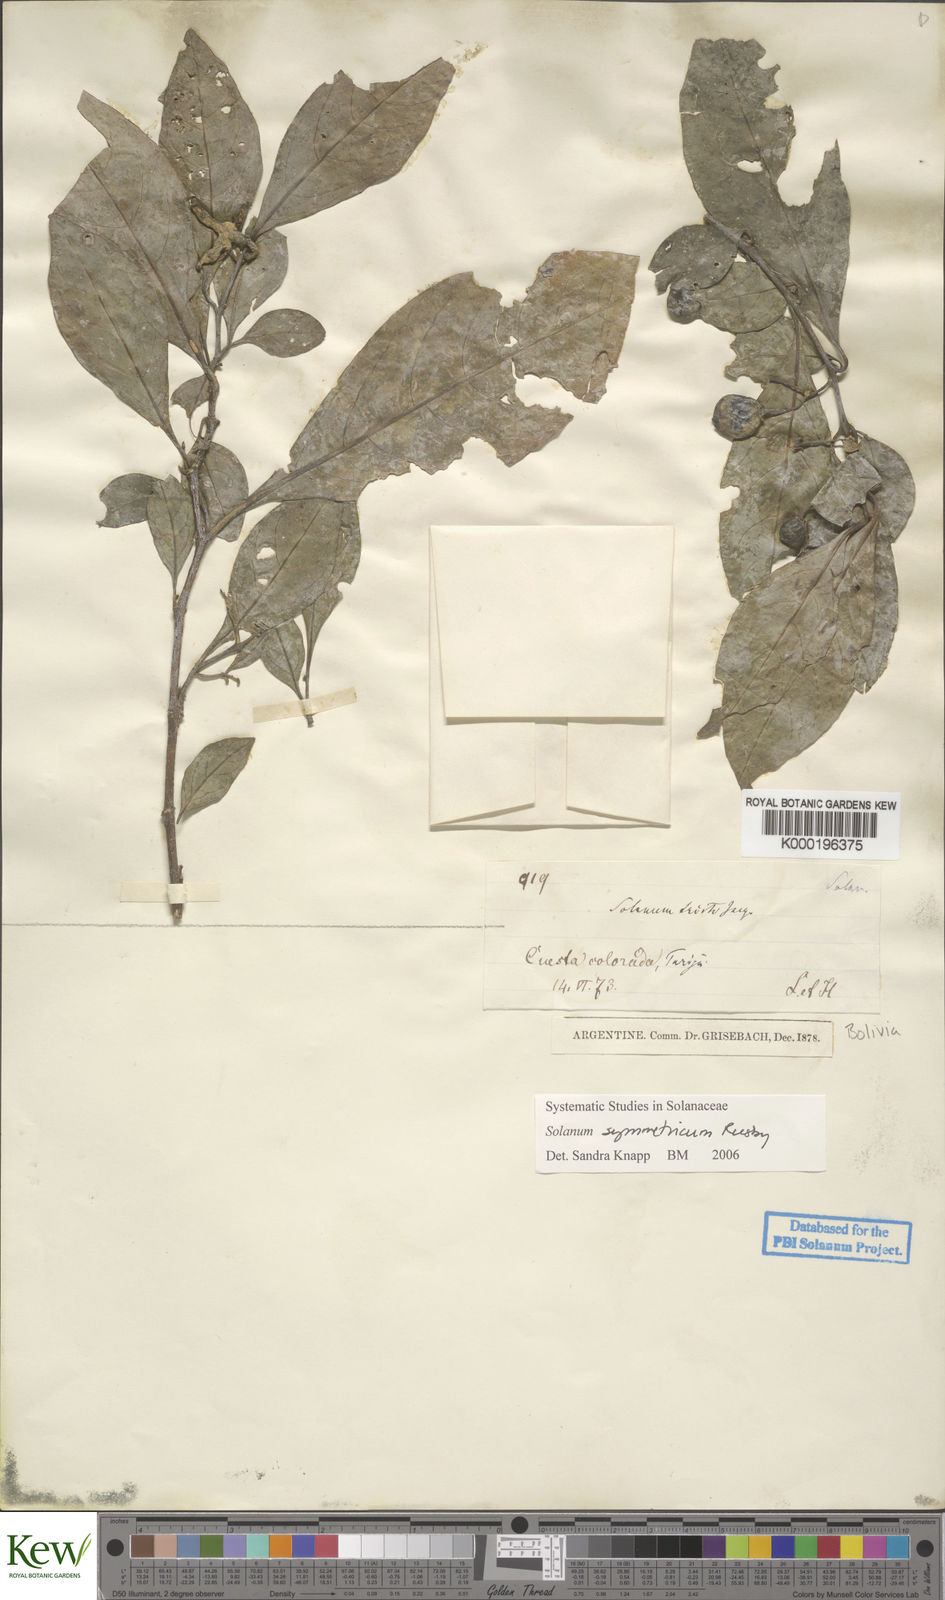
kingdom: Plantae
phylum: Tracheophyta
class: Magnoliopsida
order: Solanales
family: Solanaceae
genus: Solanum
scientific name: Solanum symmetricum
